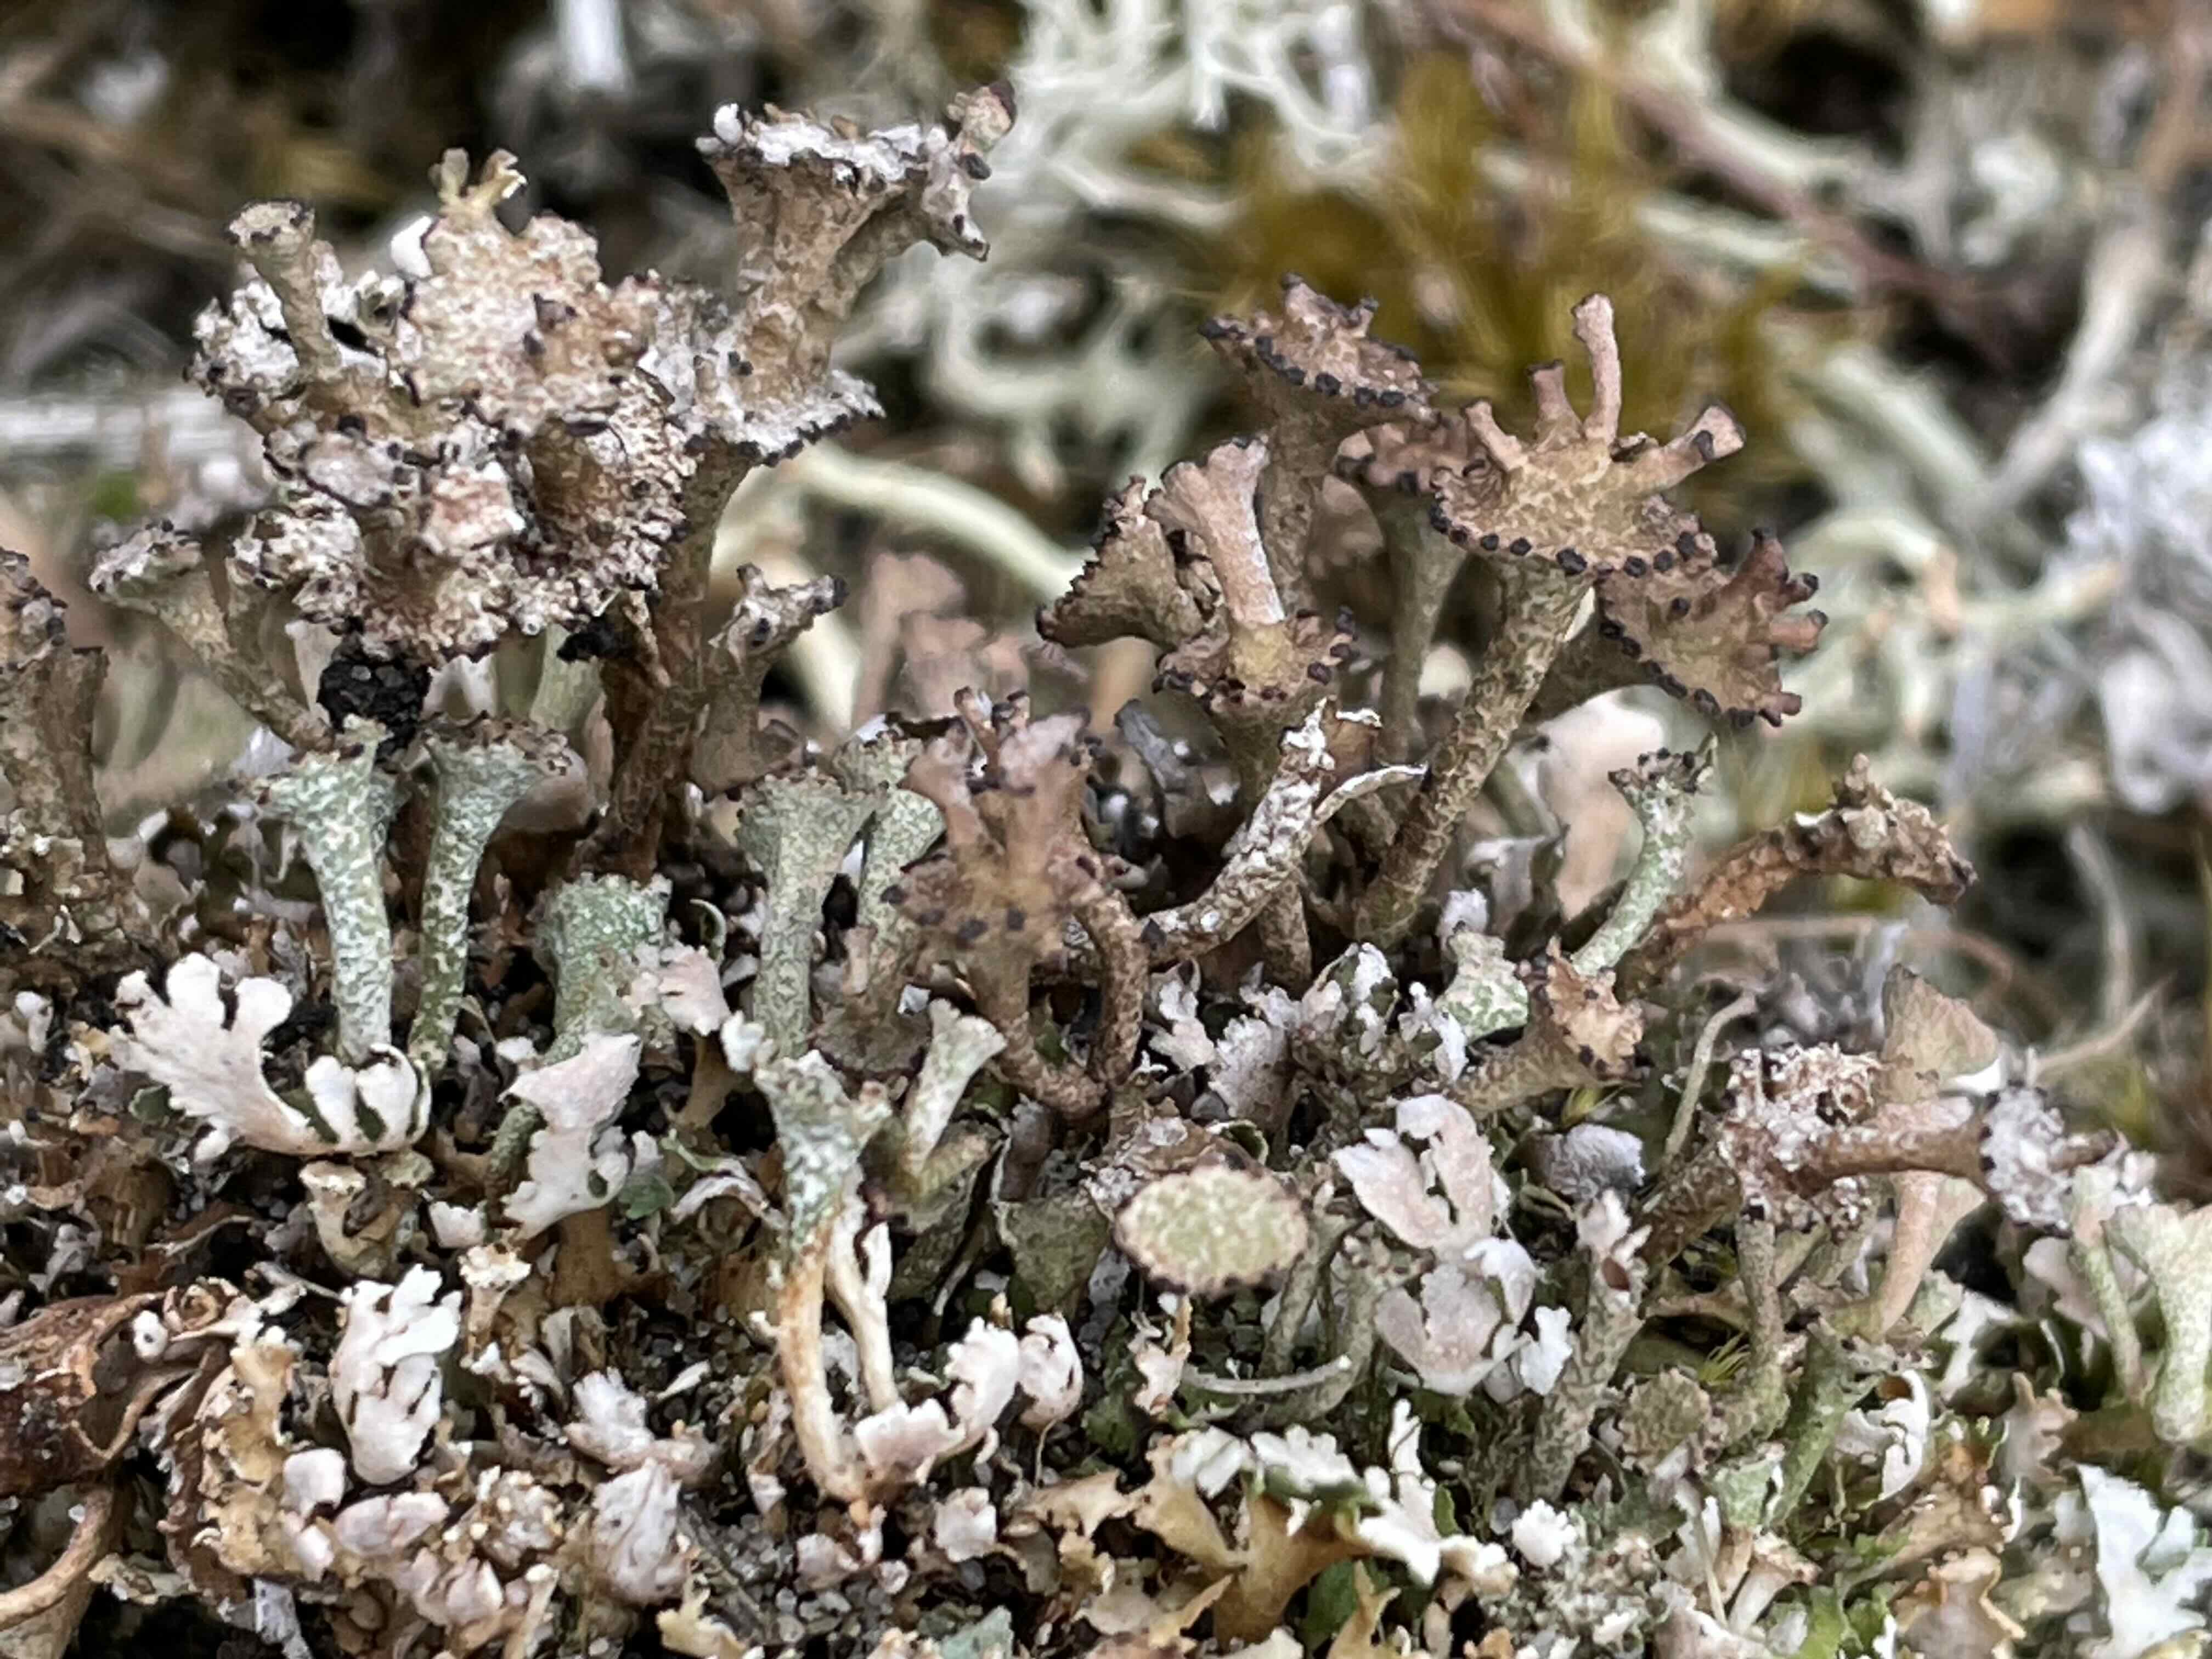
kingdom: Fungi
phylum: Ascomycota
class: Lecanoromycetes
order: Lecanorales
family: Cladoniaceae
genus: Cladonia
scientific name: Cladonia cervicornis
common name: gevir-bægerlav
